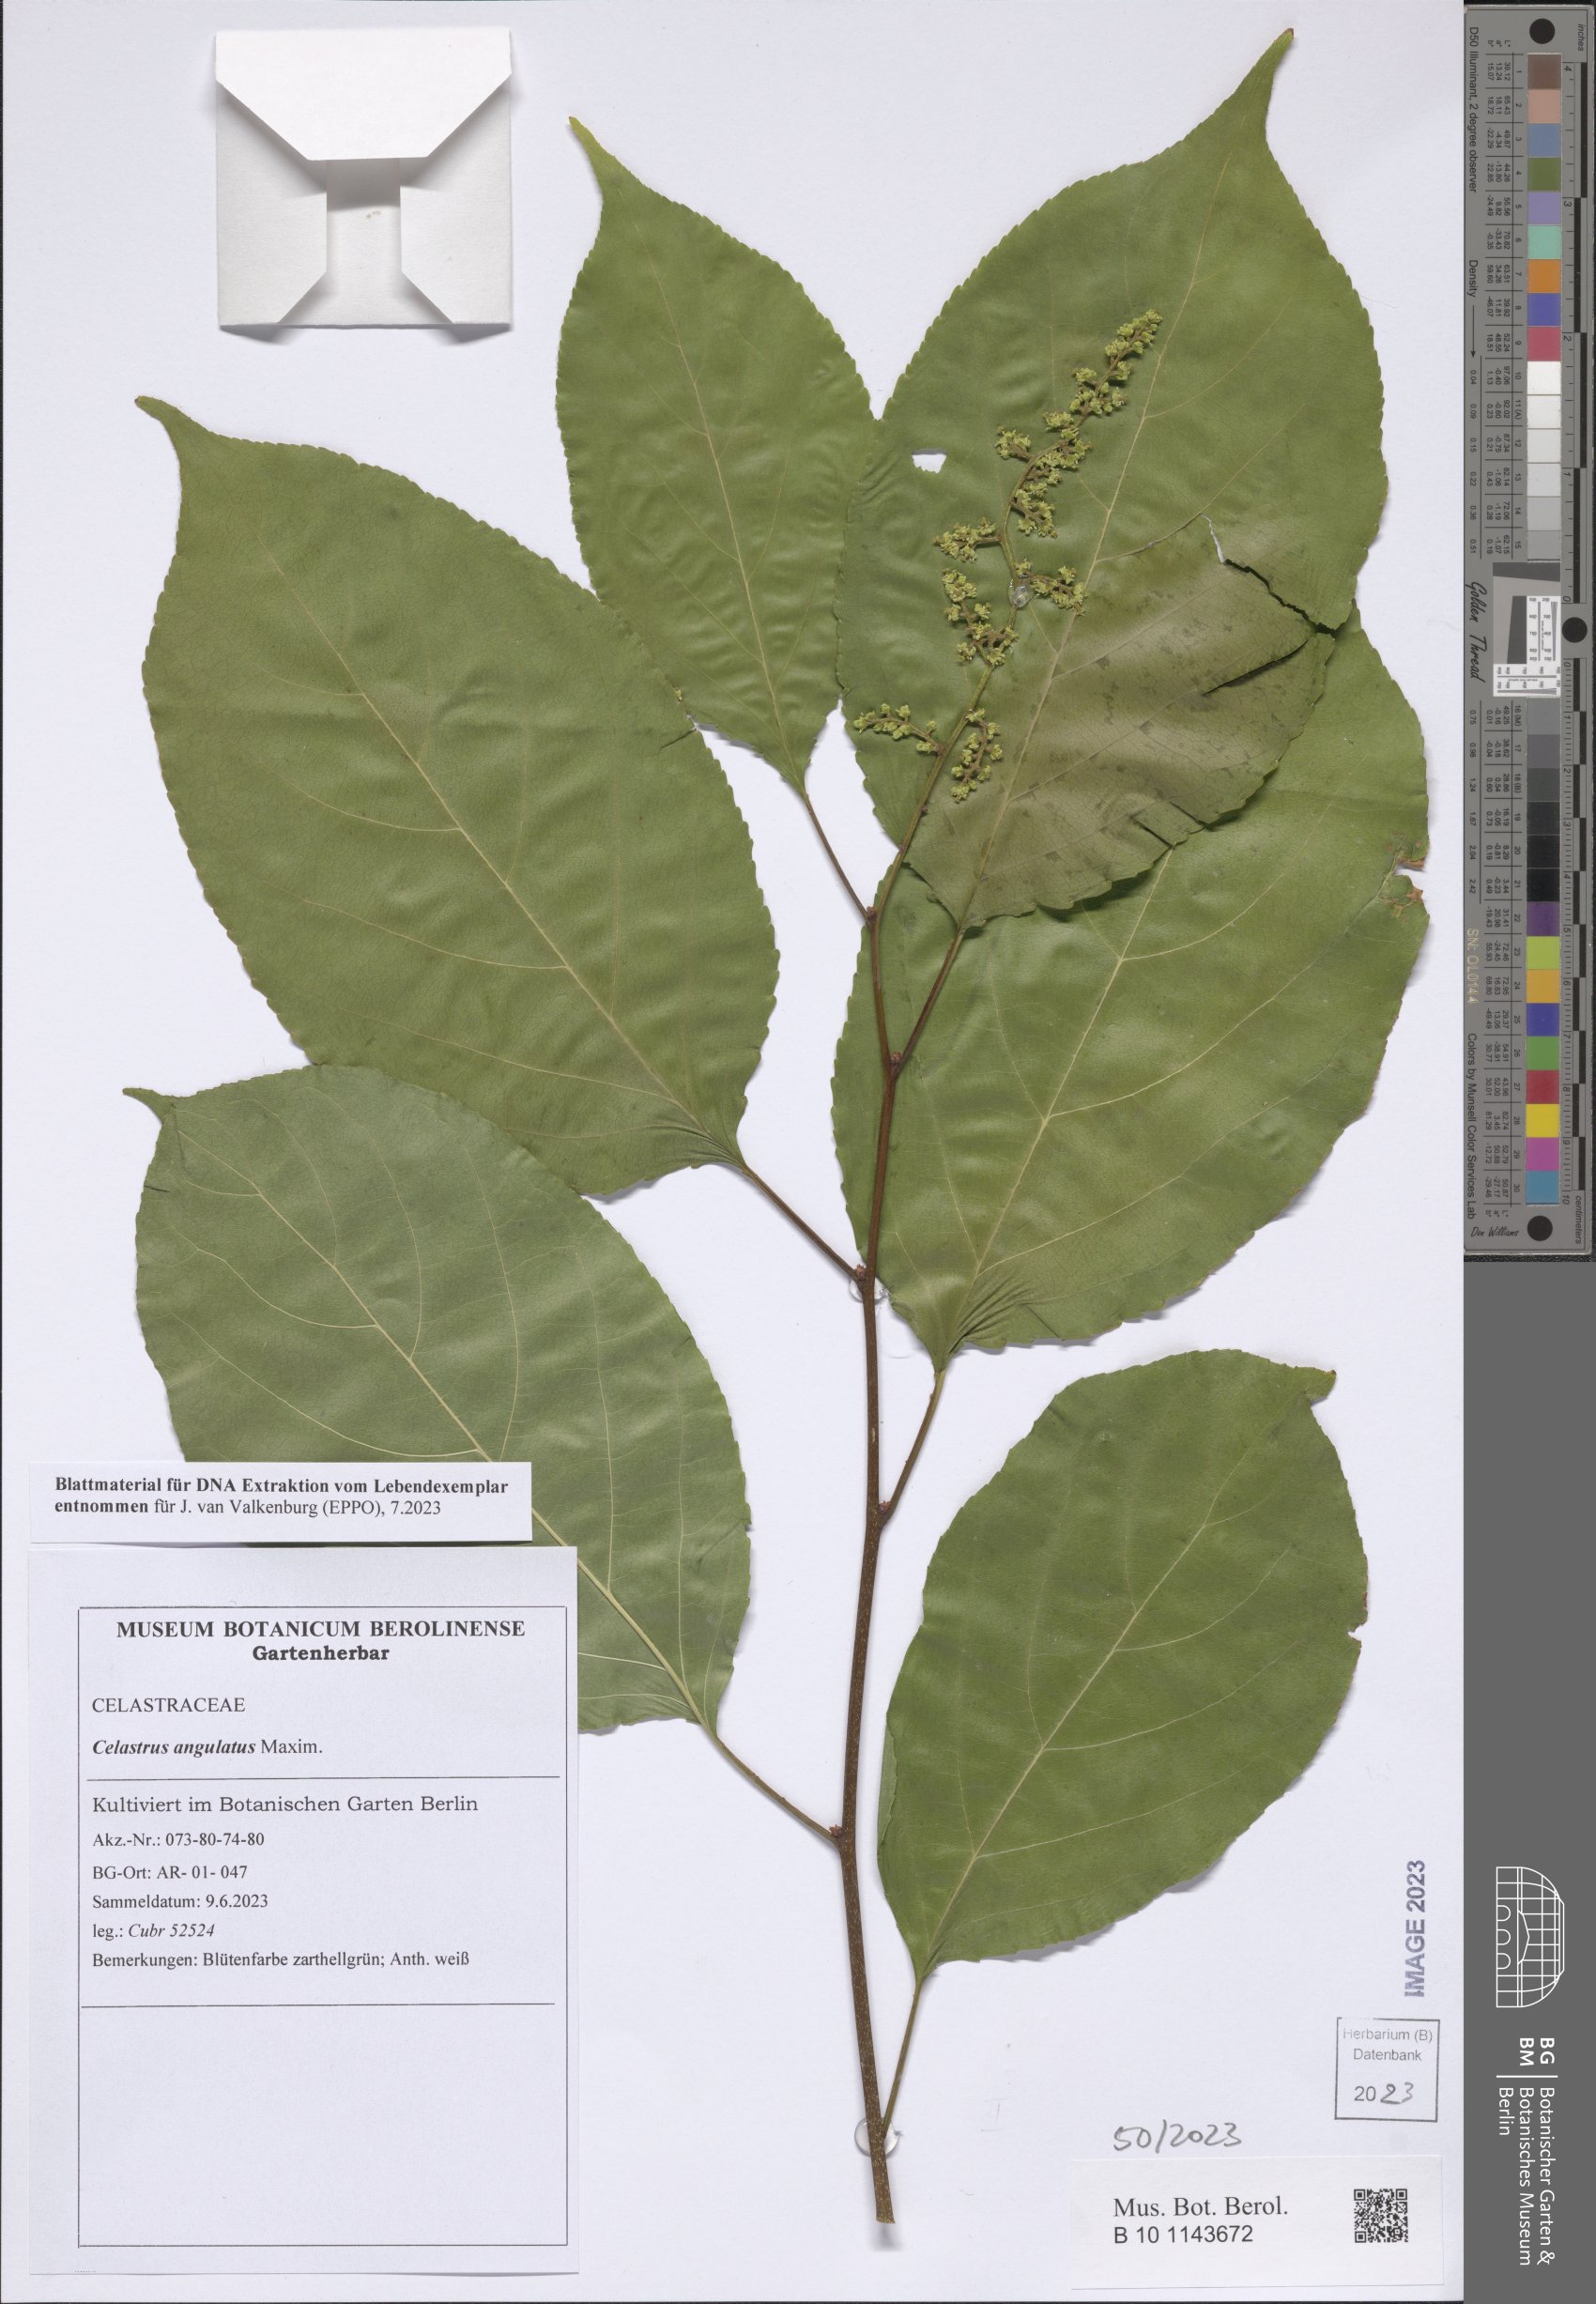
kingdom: Plantae
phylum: Tracheophyta
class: Magnoliopsida
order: Celastrales
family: Celastraceae
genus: Celastrus
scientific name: Celastrus angulatus
